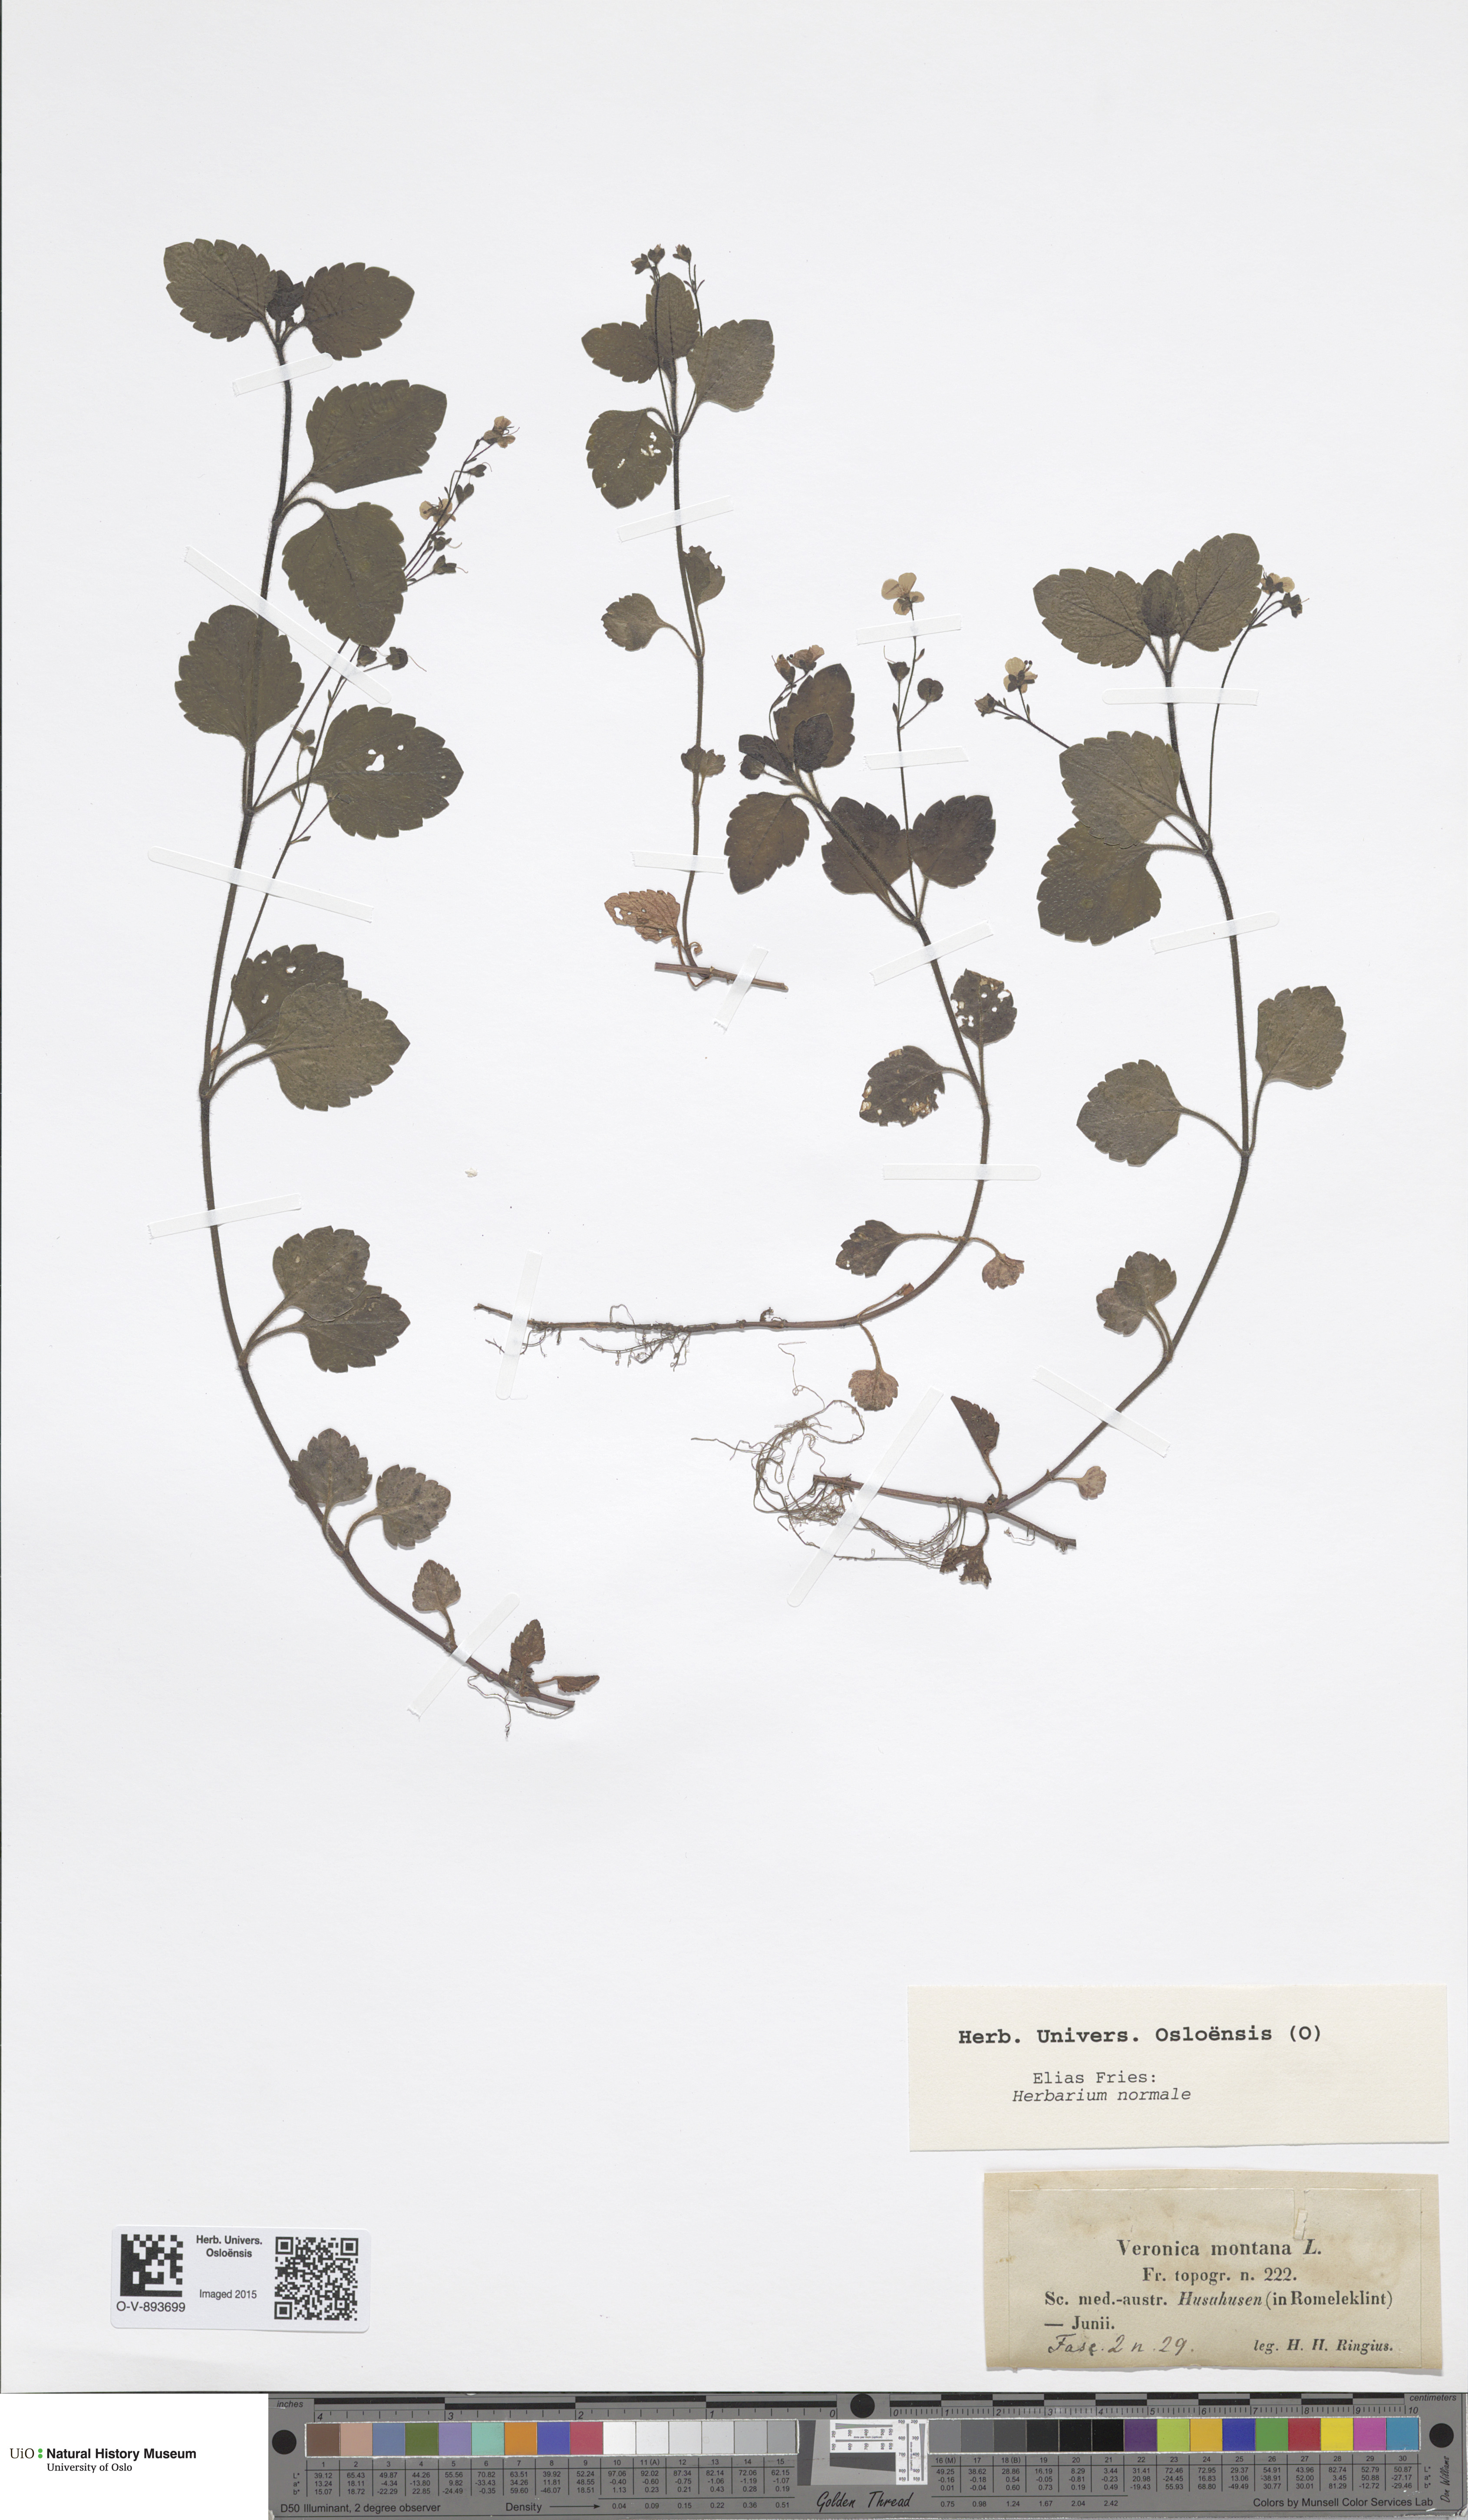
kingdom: Plantae
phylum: Tracheophyta
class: Magnoliopsida
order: Lamiales
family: Plantaginaceae
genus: Veronica
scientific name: Veronica montana
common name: Wood speedwell
